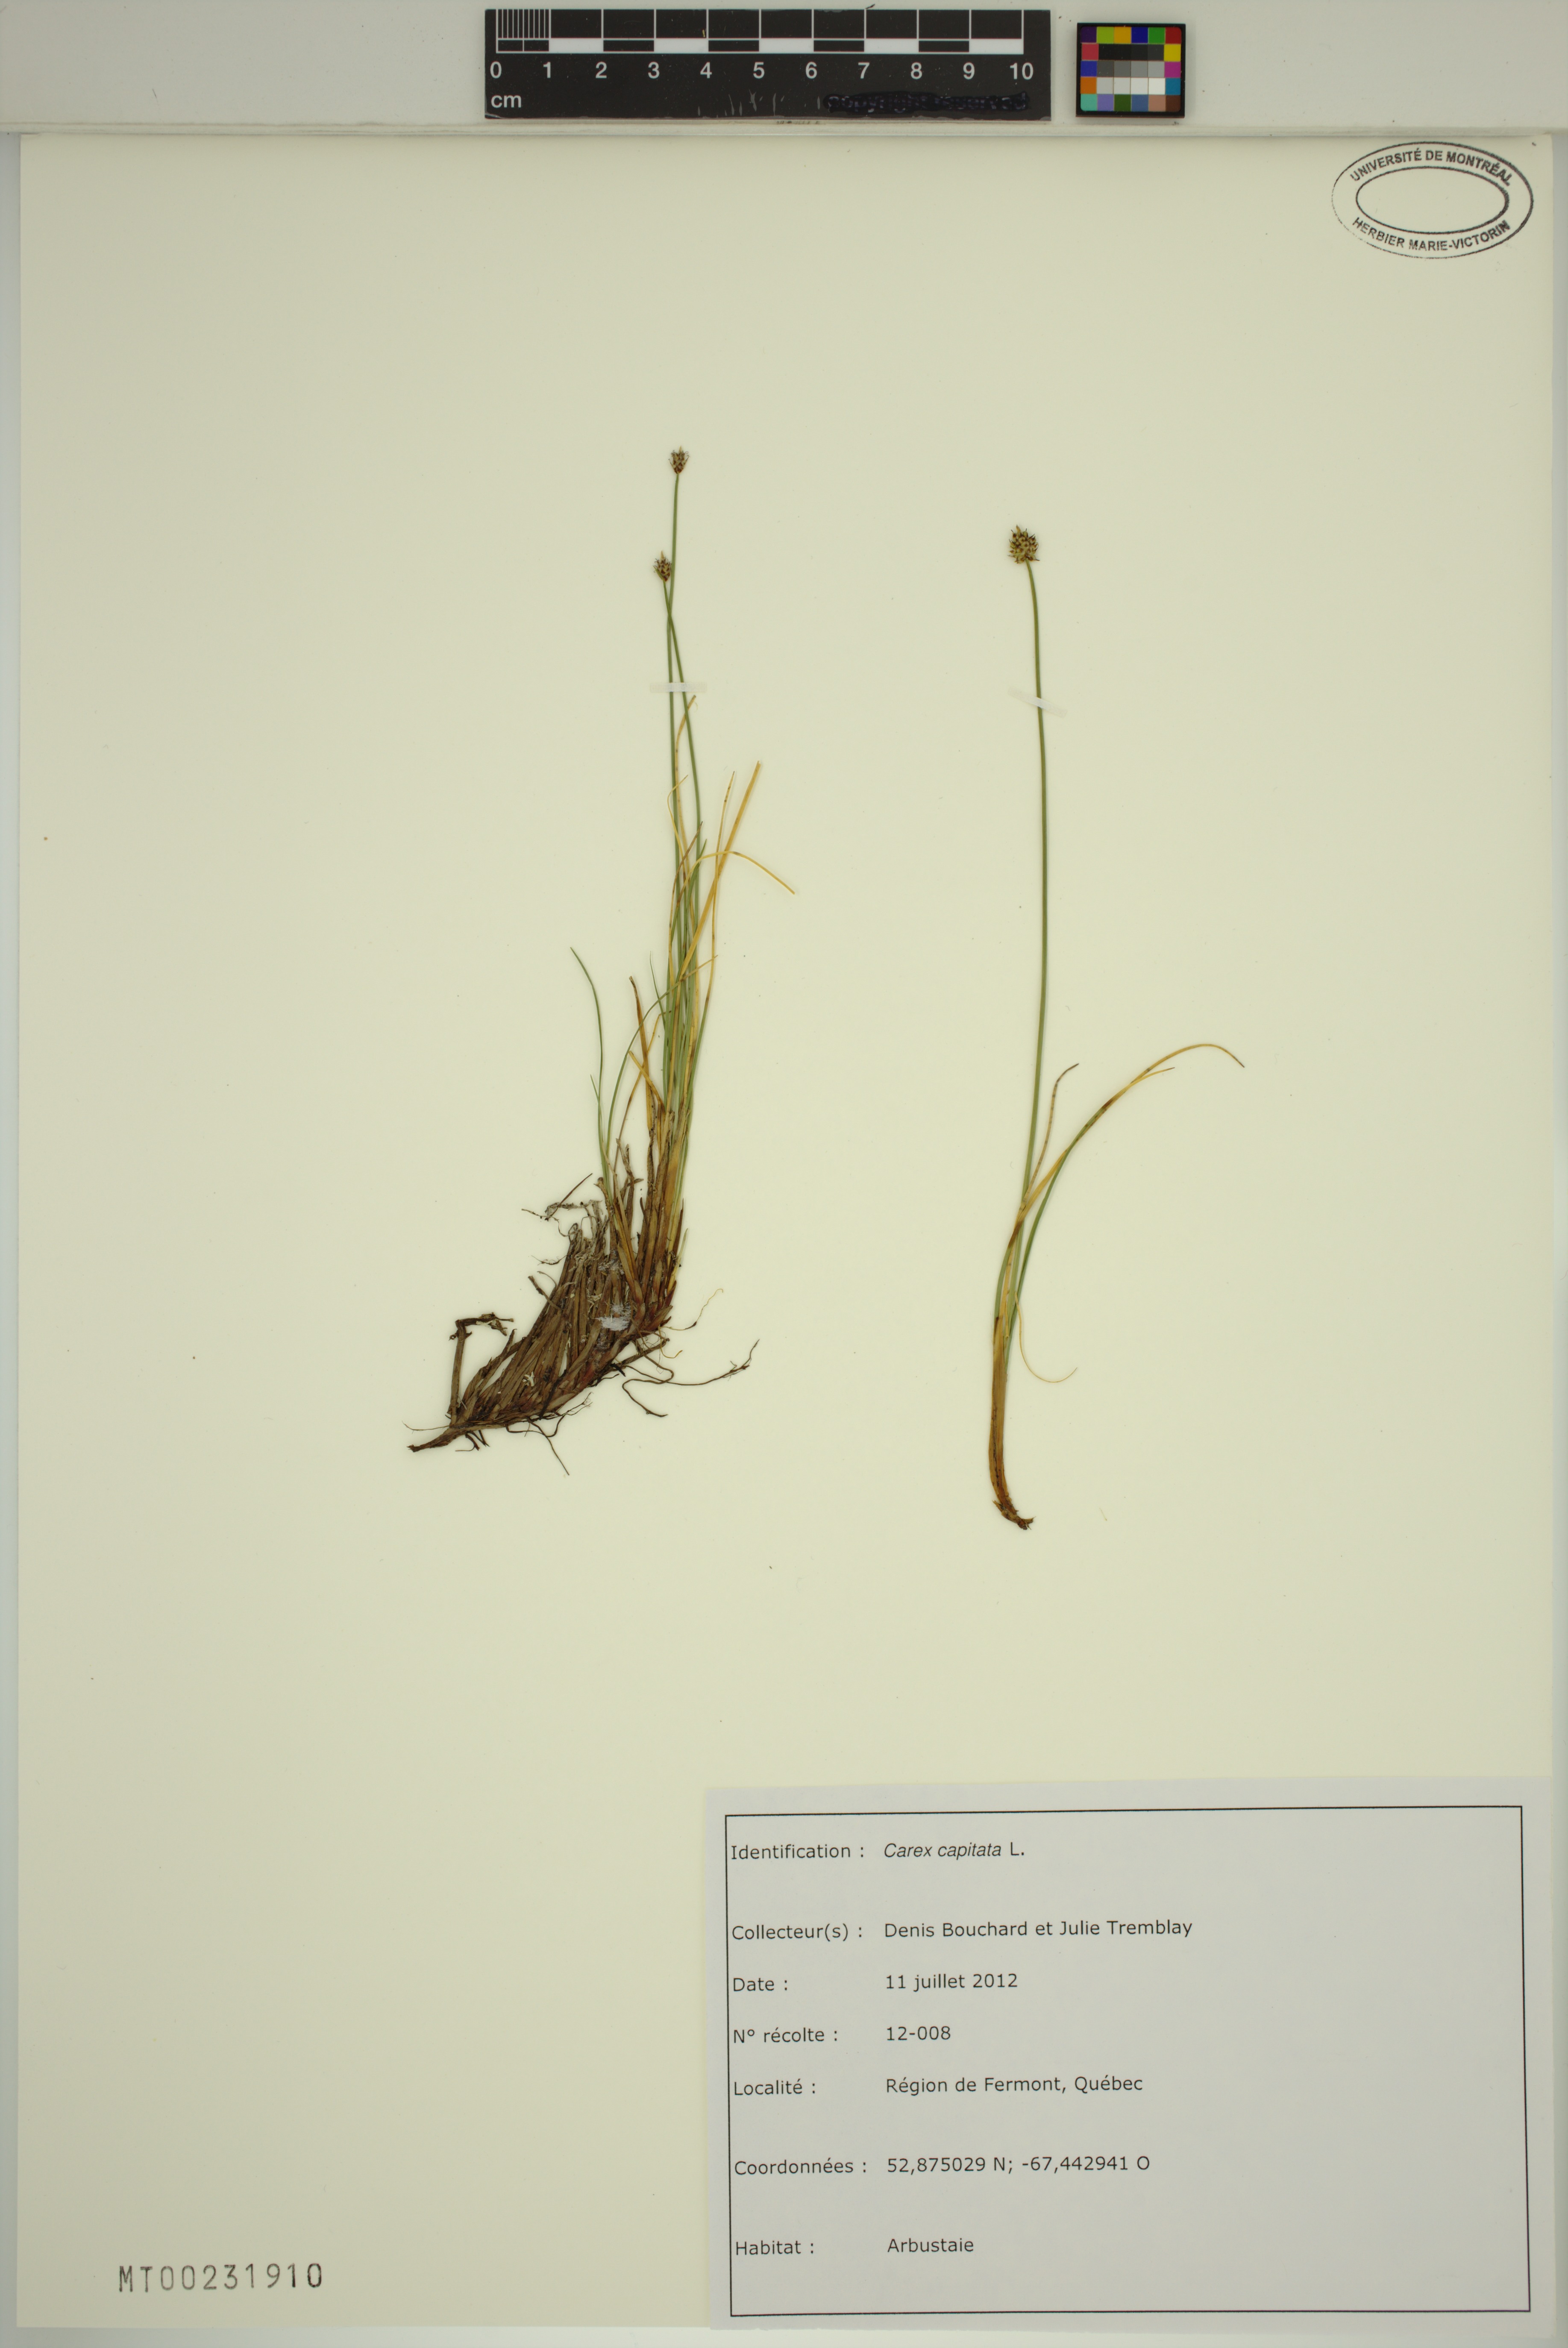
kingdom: Plantae
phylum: Tracheophyta
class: Liliopsida
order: Poales
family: Cyperaceae
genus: Carex
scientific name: Carex capitata
